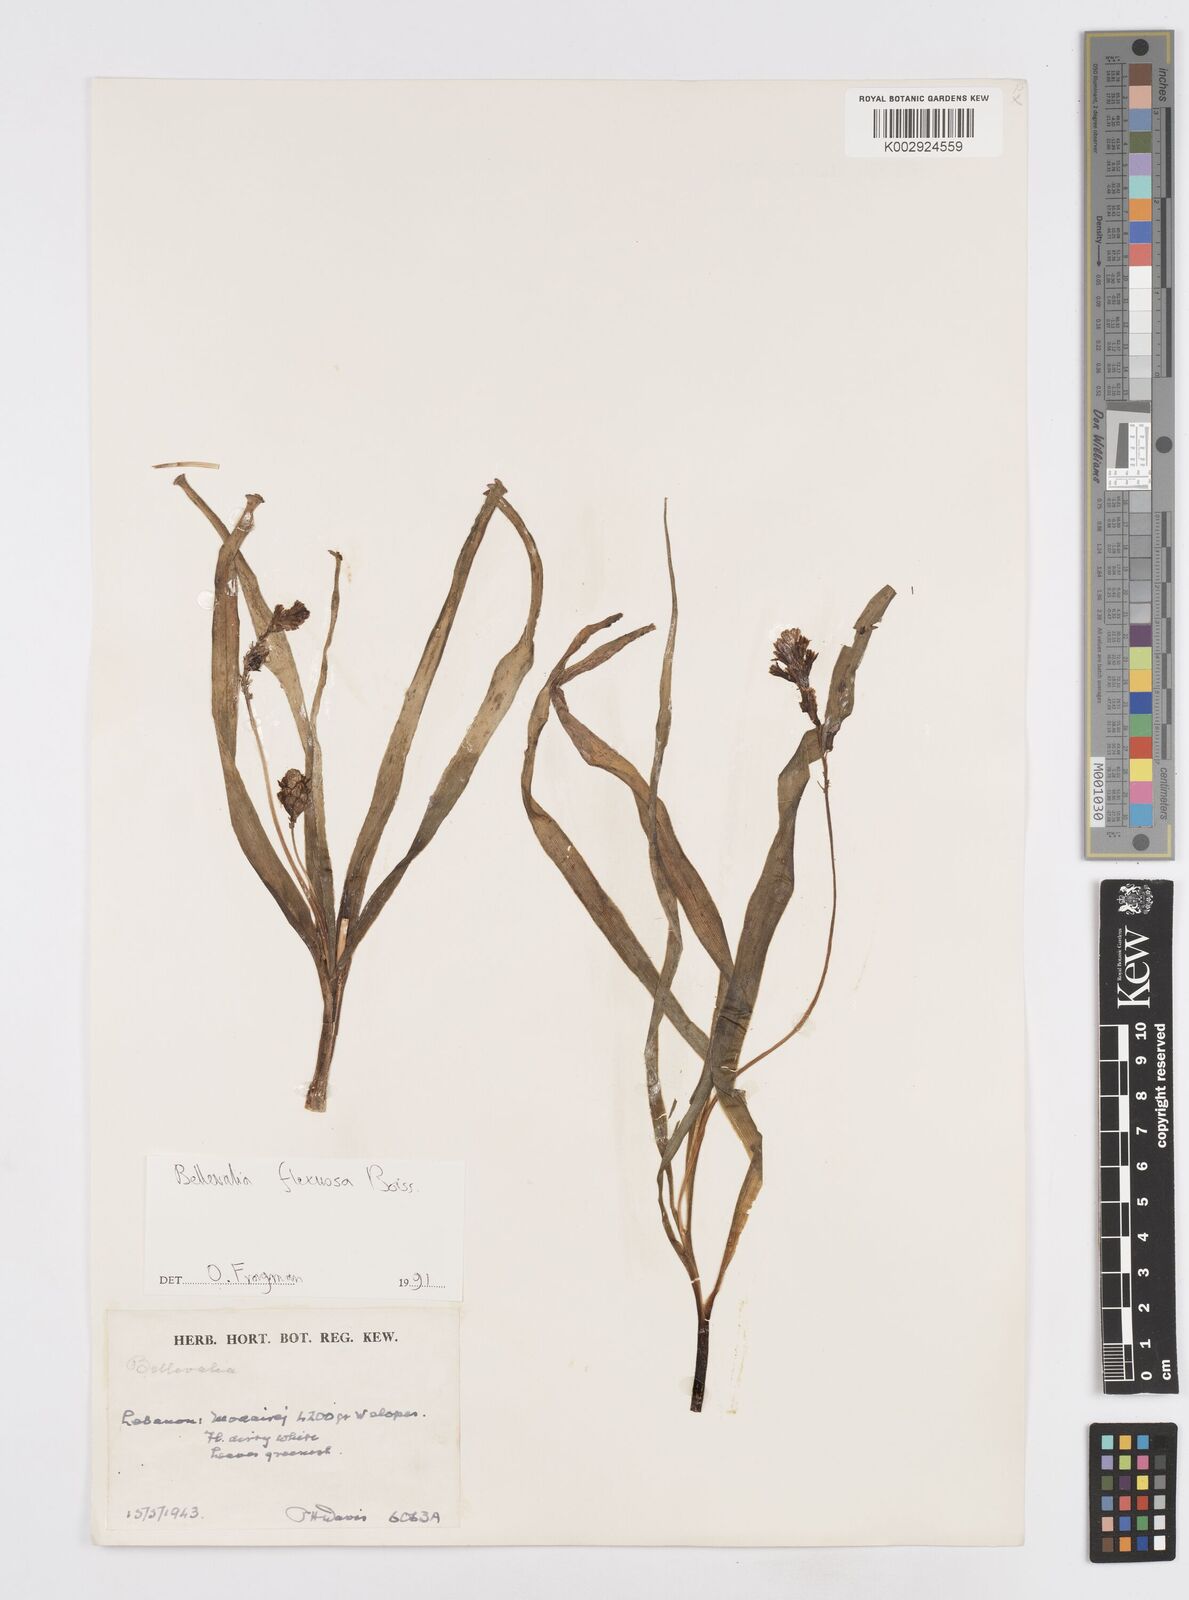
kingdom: Plantae
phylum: Tracheophyta
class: Liliopsida
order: Asparagales
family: Asparagaceae
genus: Bellevalia
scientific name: Bellevalia flexuosa
